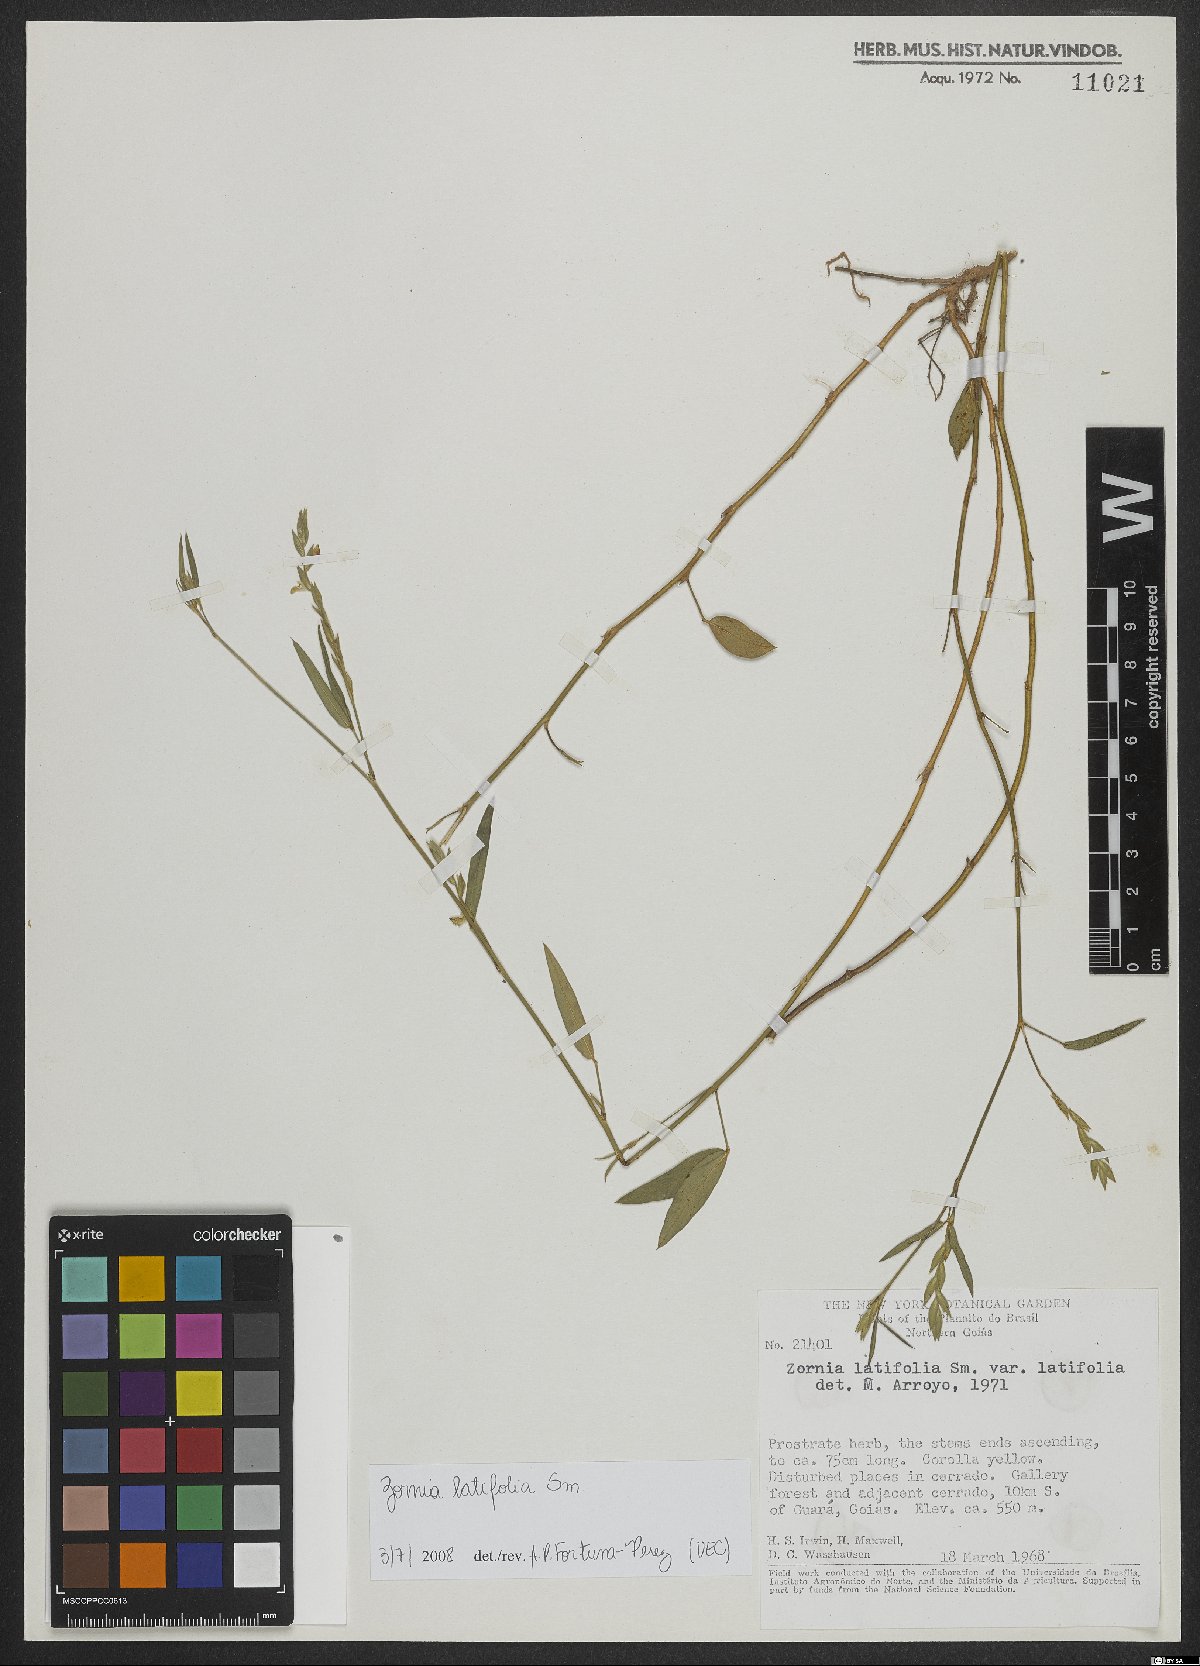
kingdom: Plantae
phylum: Tracheophyta
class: Magnoliopsida
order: Fabales
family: Fabaceae
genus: Zornia
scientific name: Zornia sericea
